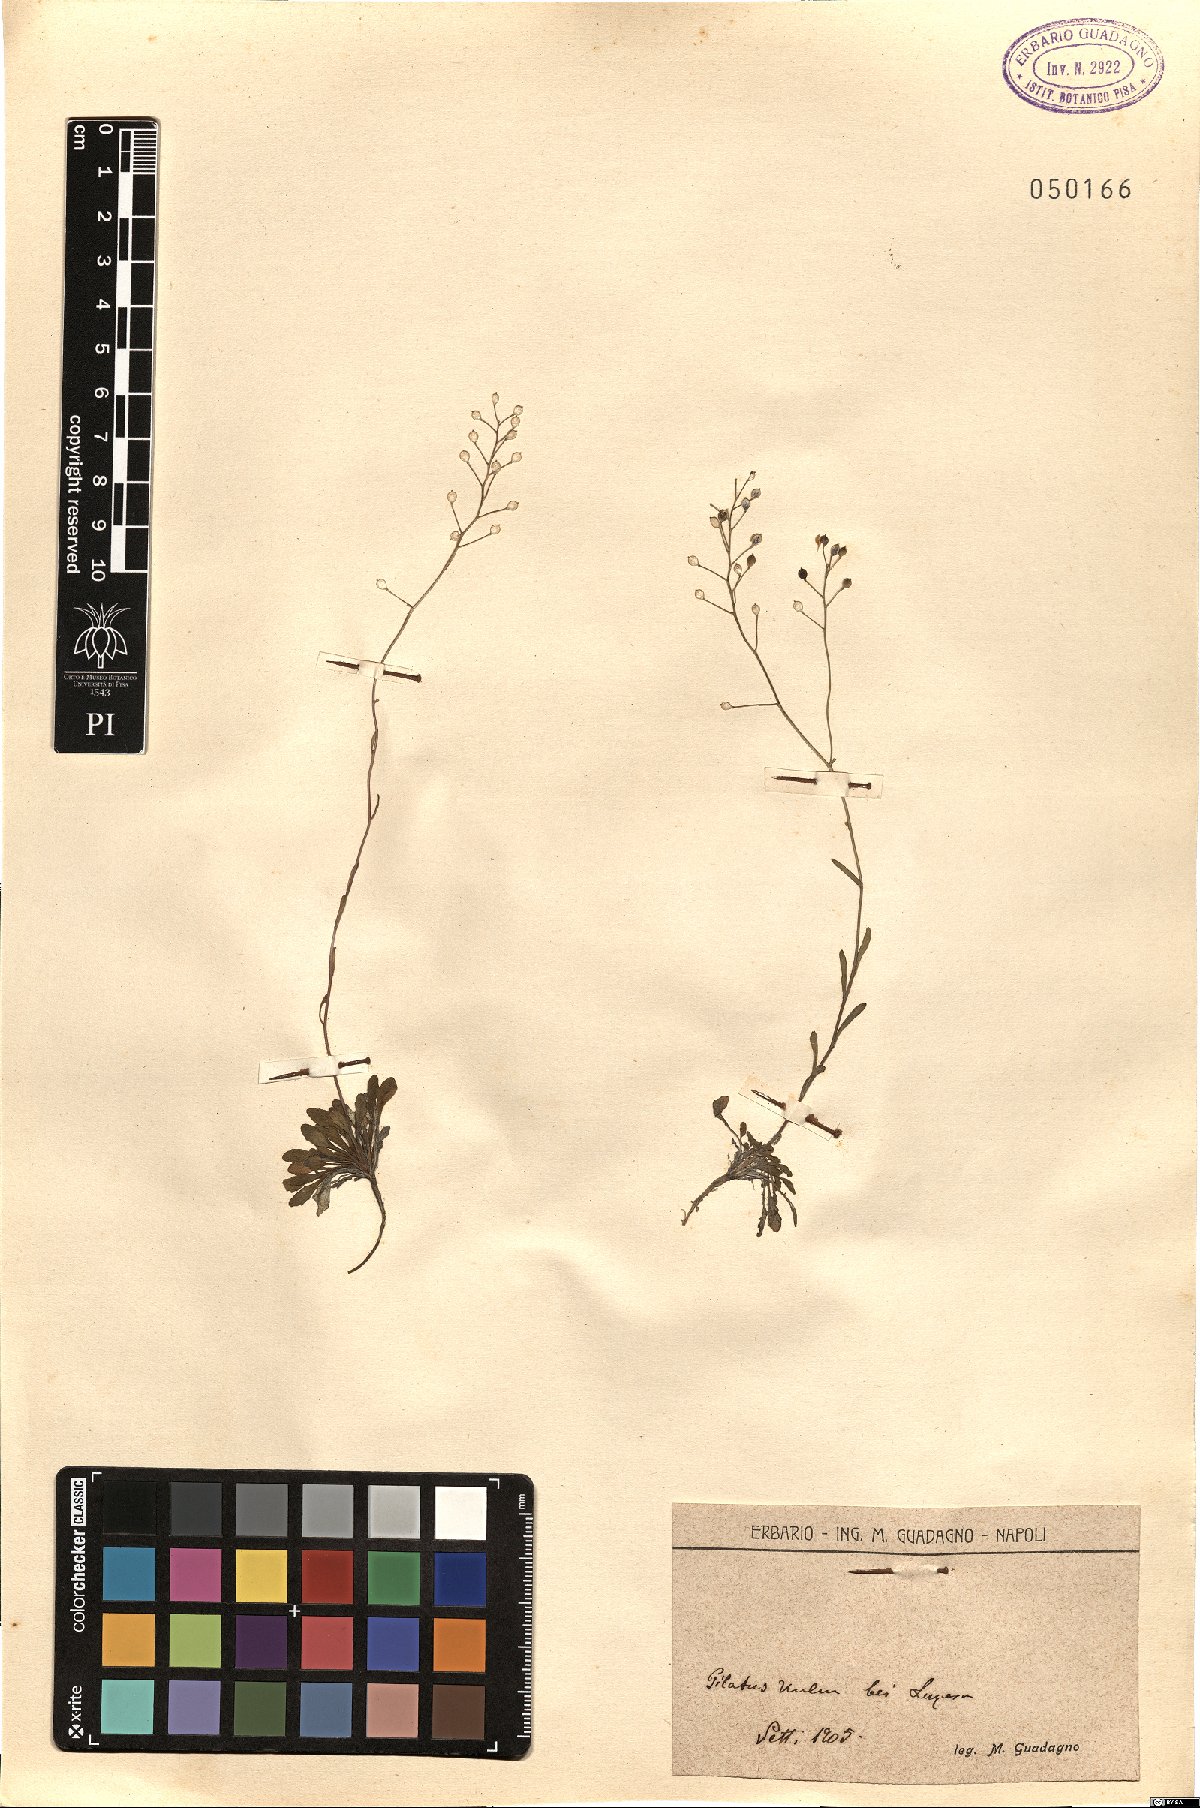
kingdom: Plantae
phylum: Tracheophyta
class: Magnoliopsida
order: Brassicales
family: Brassicaceae
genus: Lepidium
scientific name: Lepidium
